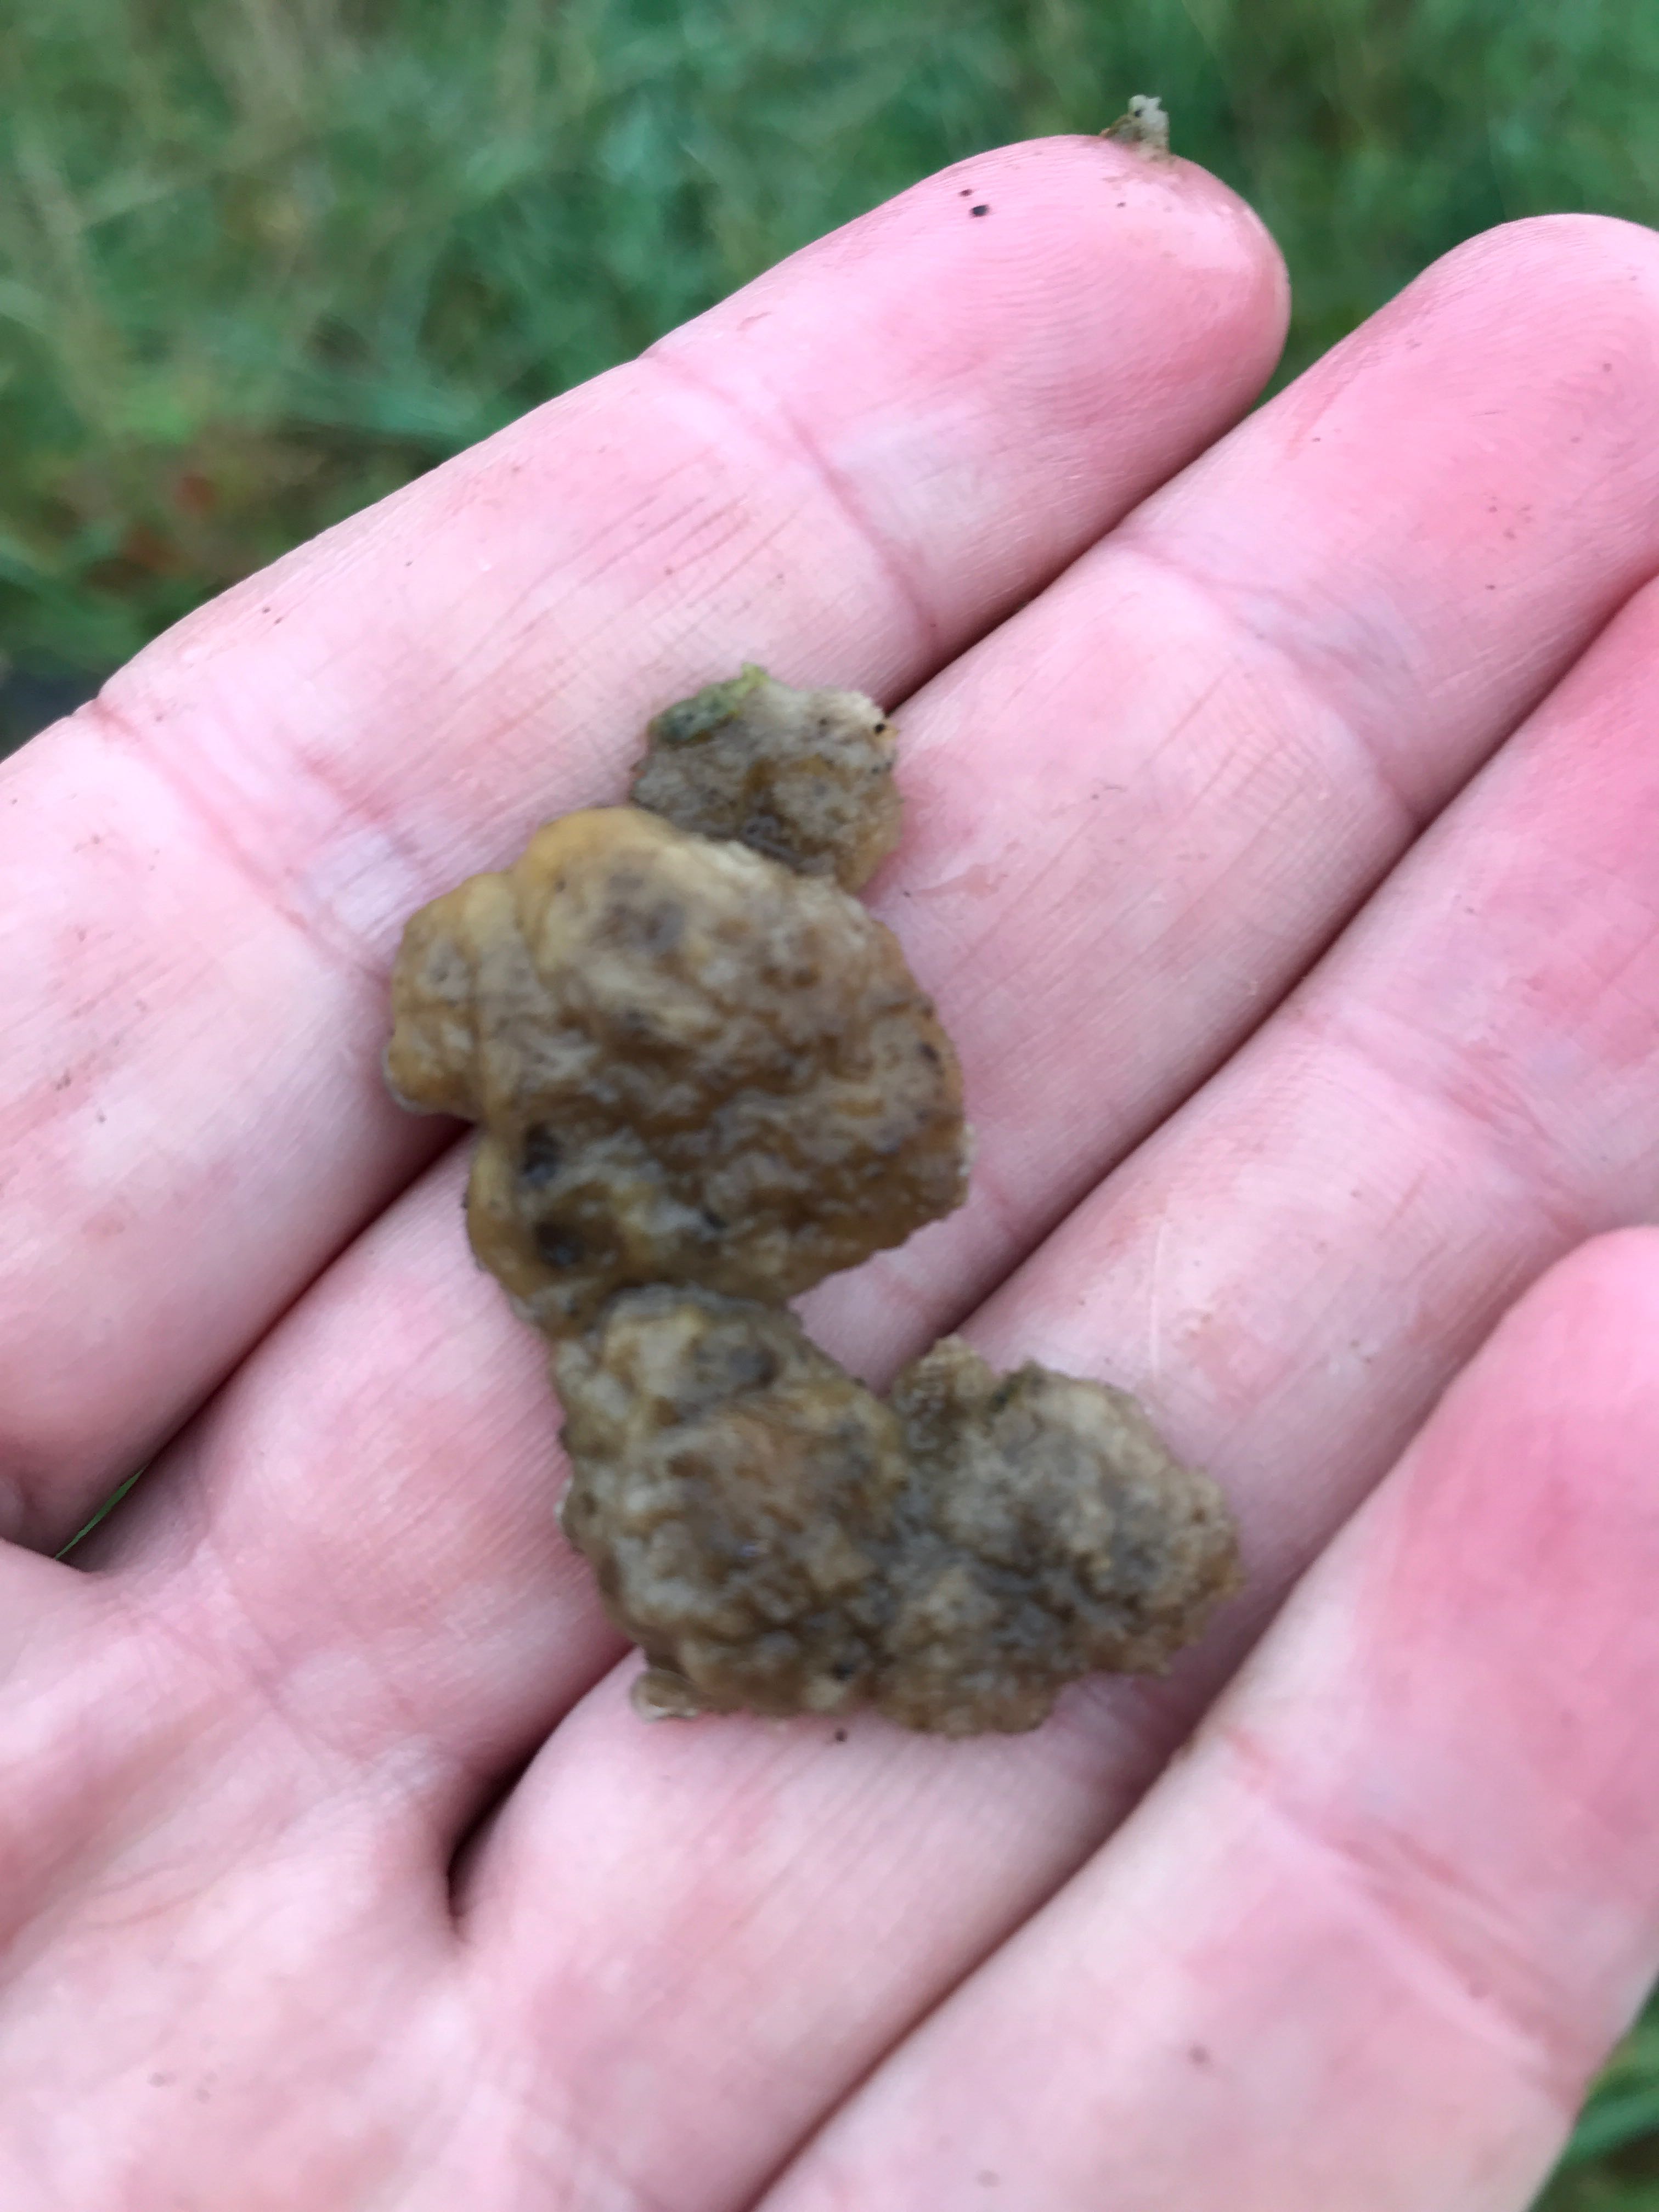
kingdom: Fungi
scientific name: Fungi
